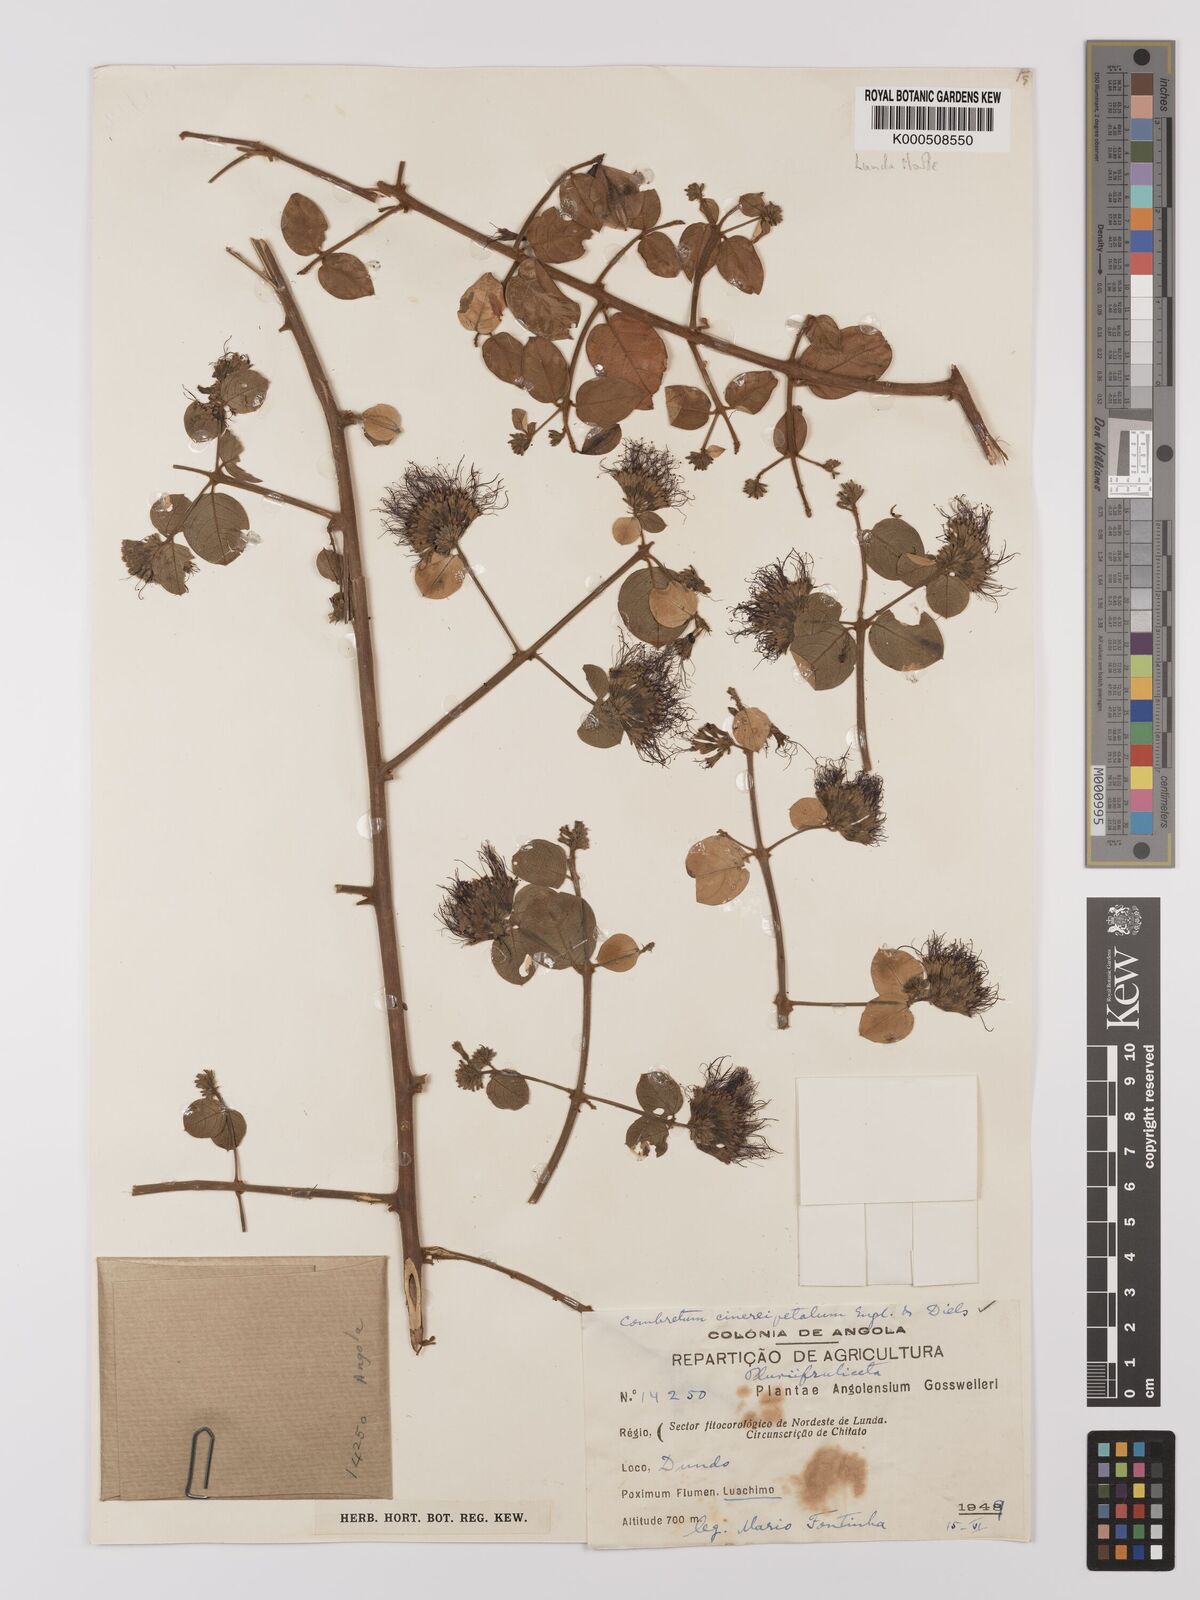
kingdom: Plantae
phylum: Tracheophyta
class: Magnoliopsida
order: Myrtales
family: Combretaceae
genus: Combretum
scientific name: Combretum cinereopetalum
